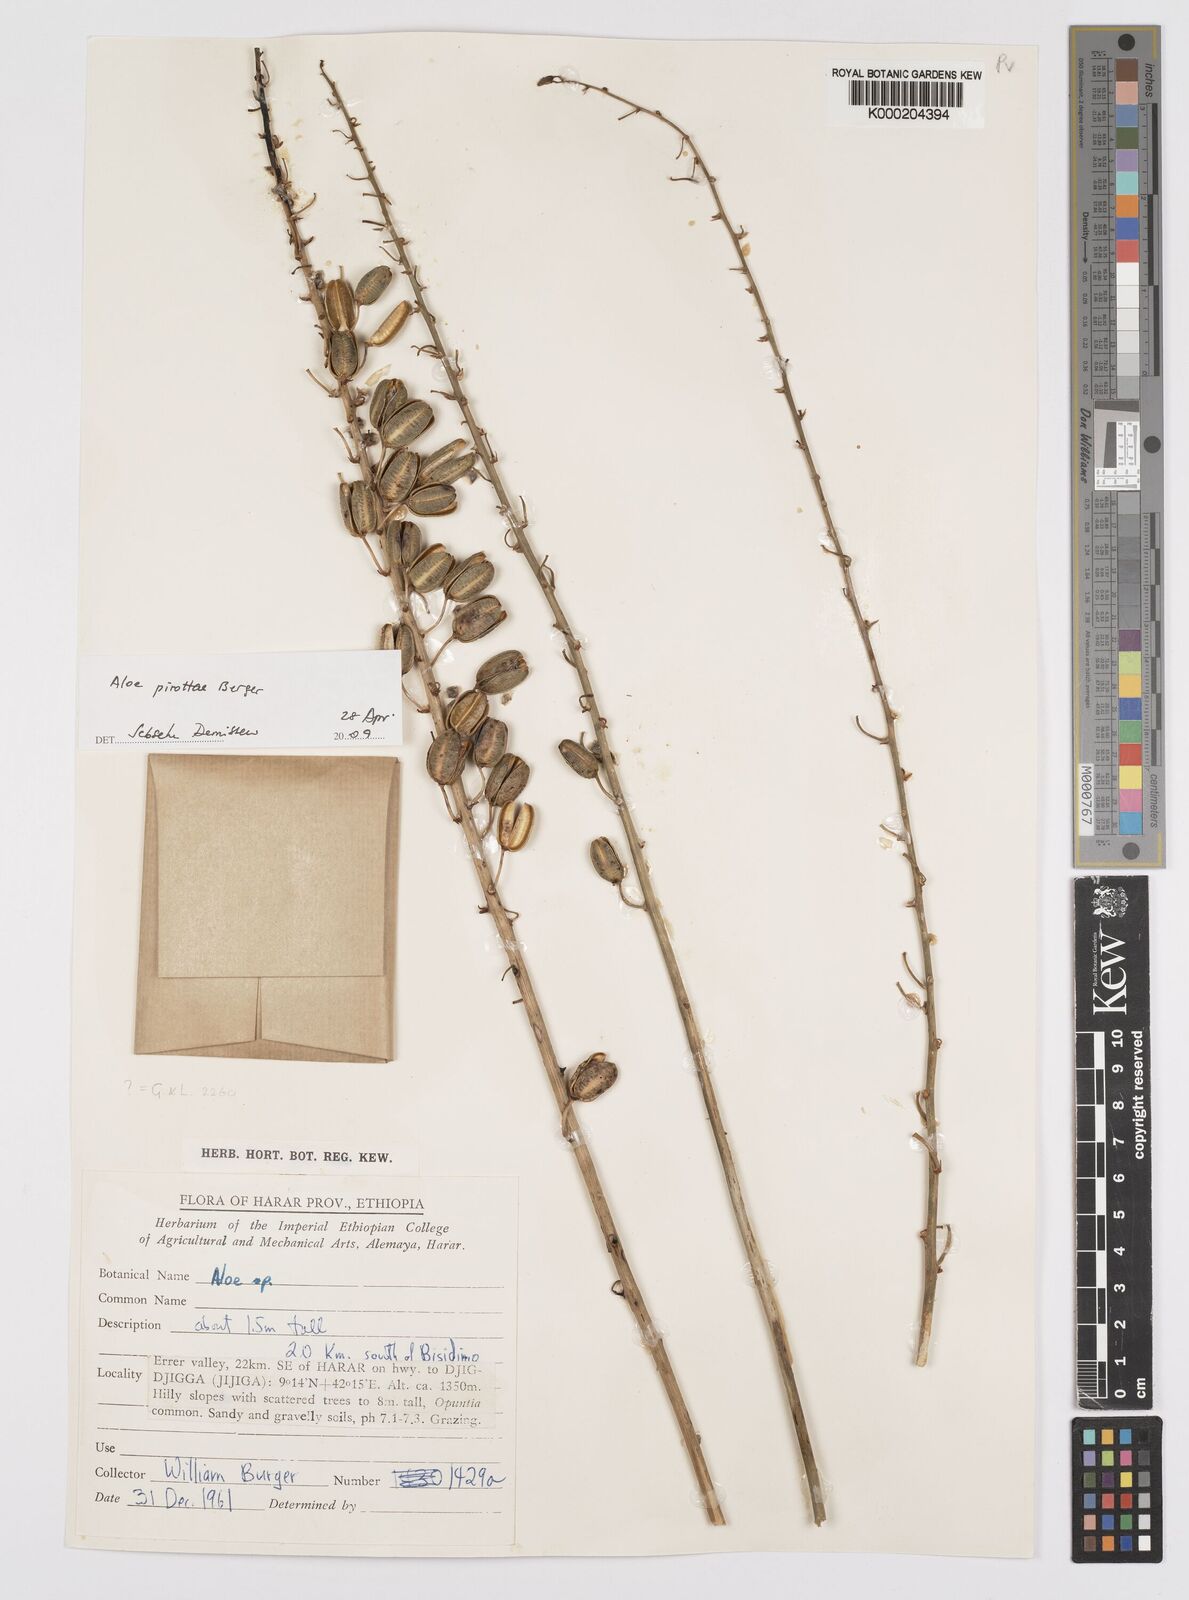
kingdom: Plantae
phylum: Tracheophyta
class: Liliopsida
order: Asparagales
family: Asphodelaceae
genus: Aloe
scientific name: Aloe pirottae
